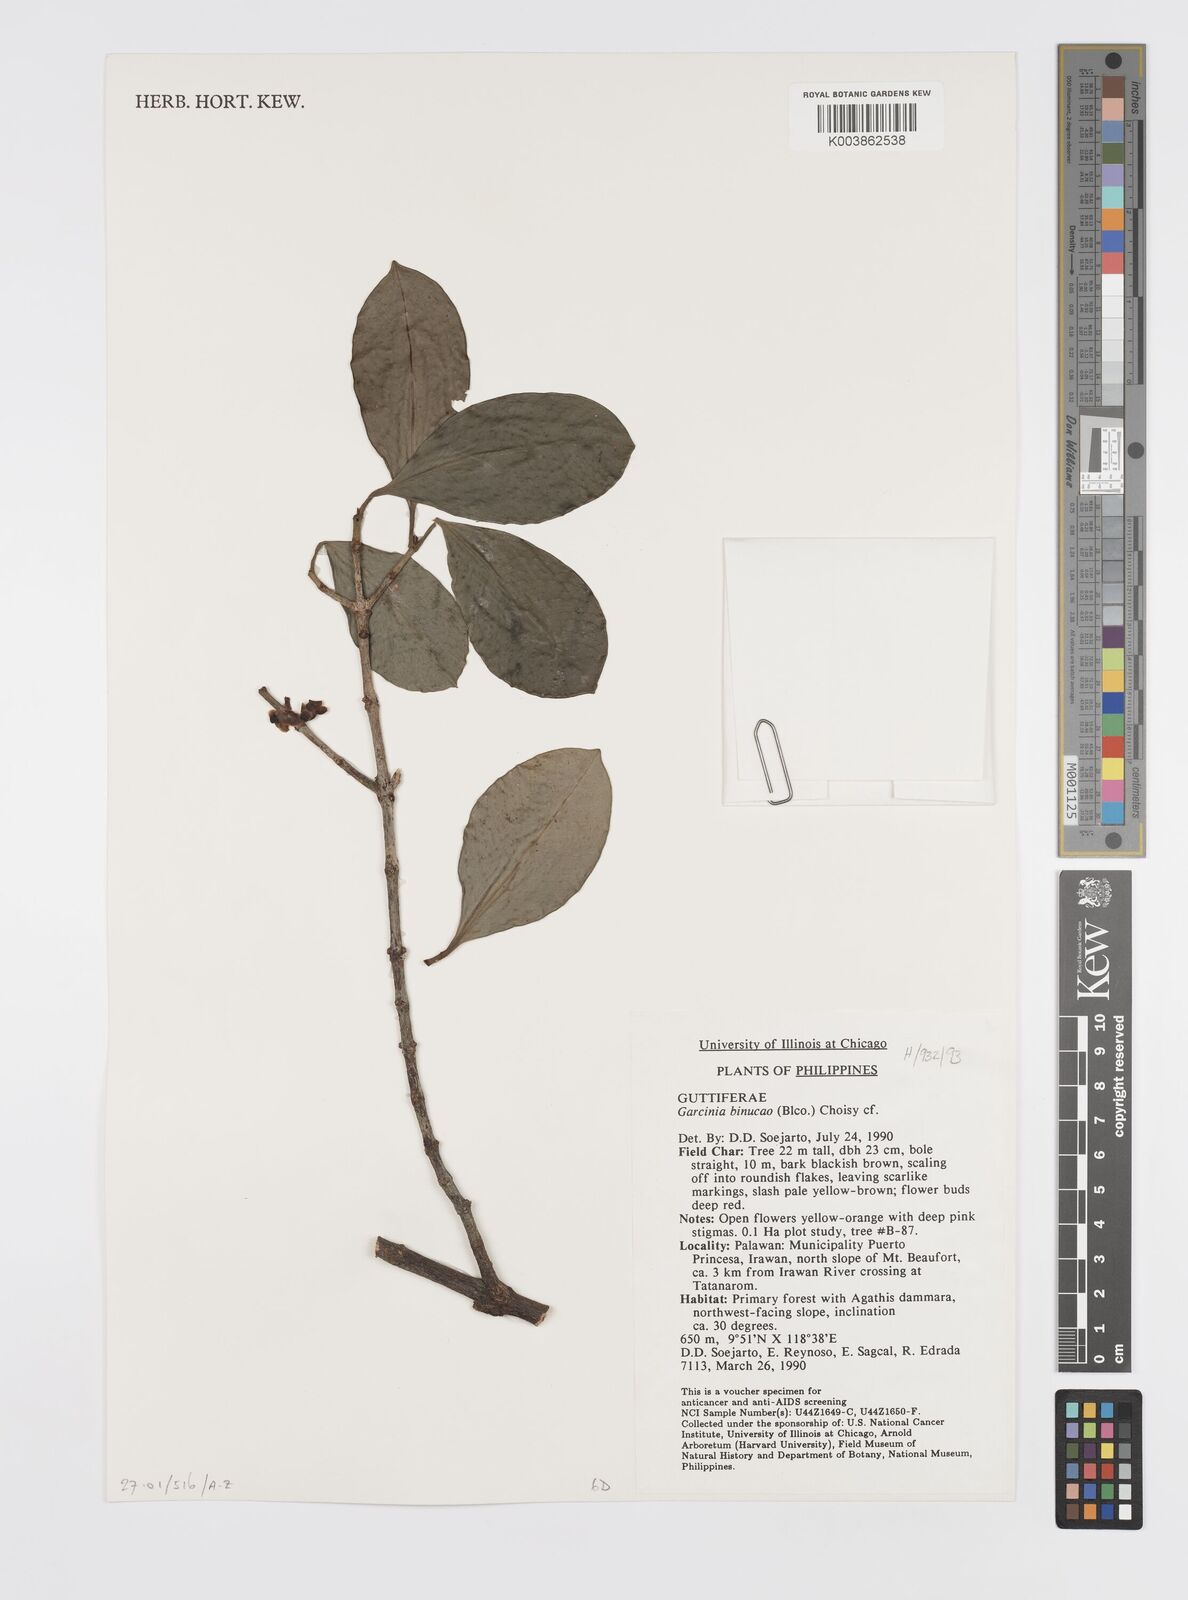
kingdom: Plantae
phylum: Tracheophyta
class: Magnoliopsida
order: Malpighiales
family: Clusiaceae
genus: Garcinia
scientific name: Garcinia binucao
